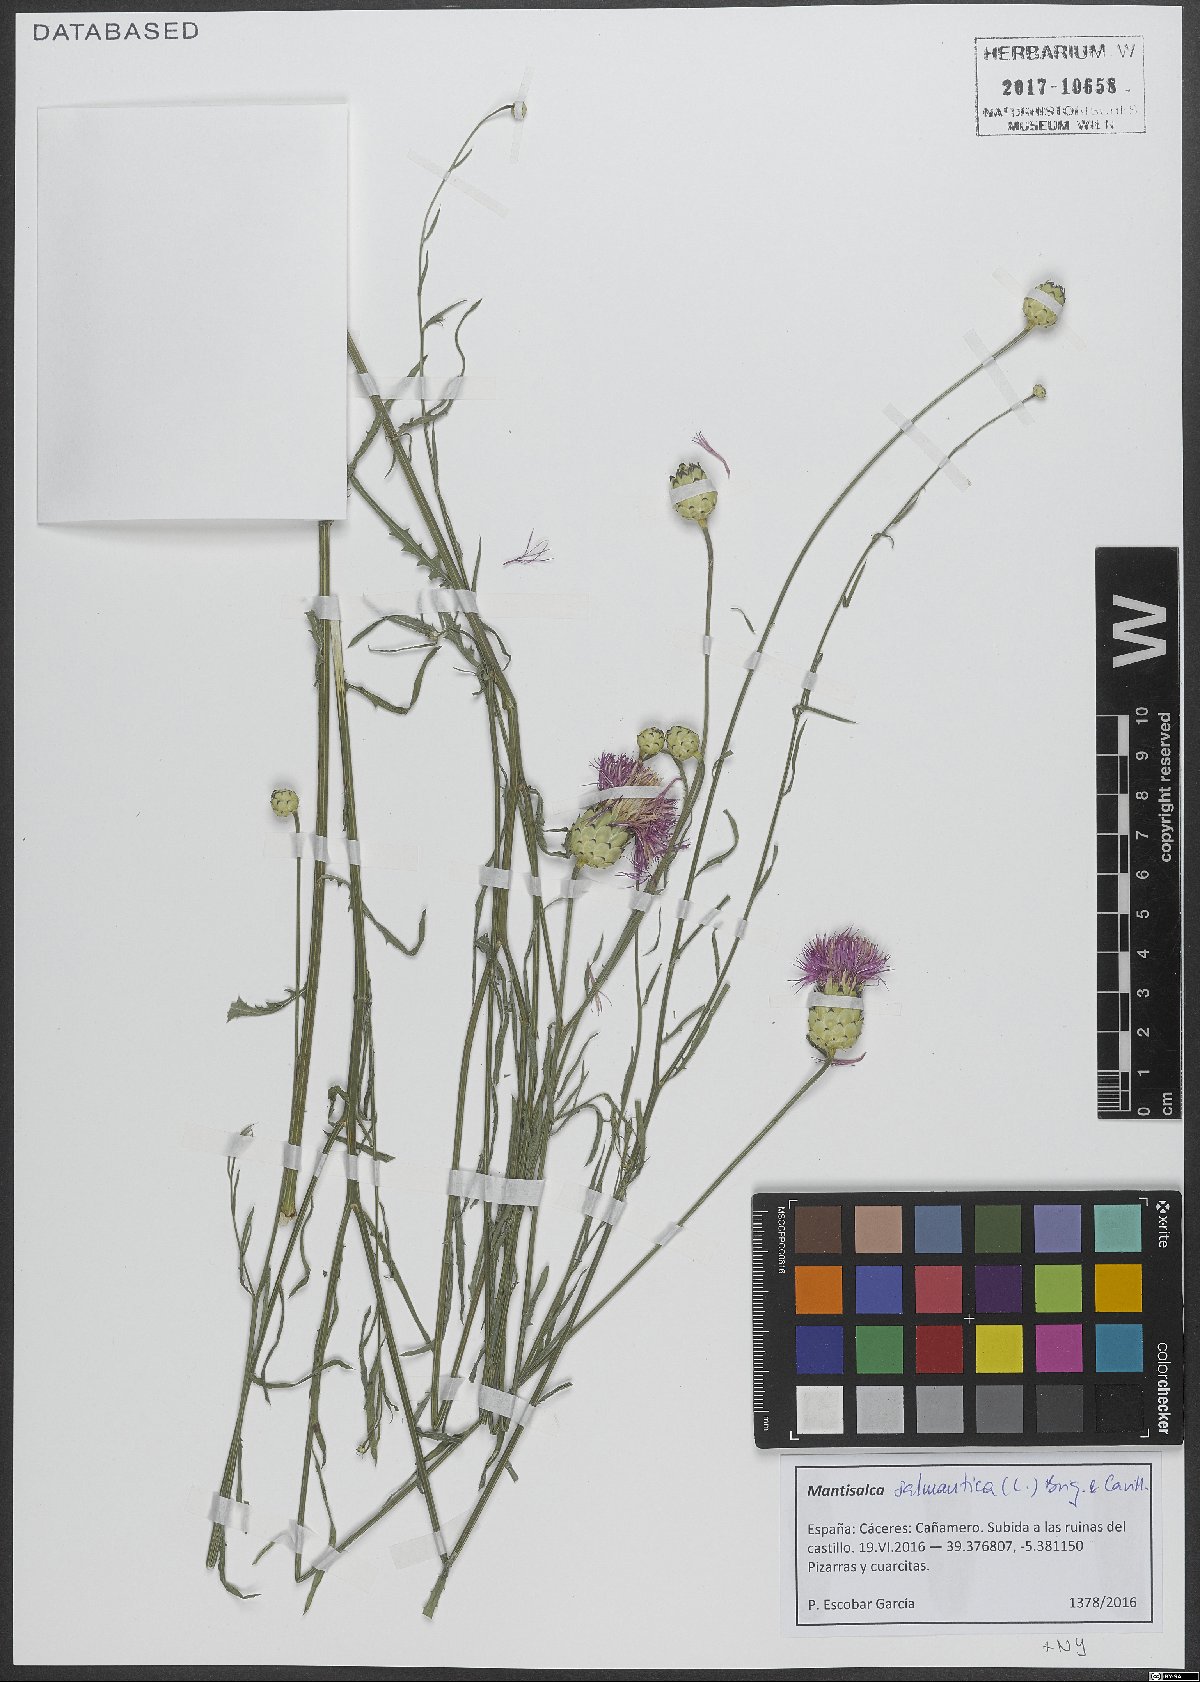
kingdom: Plantae
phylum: Tracheophyta
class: Magnoliopsida
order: Asterales
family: Asteraceae
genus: Mantisalca
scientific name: Mantisalca salmantica
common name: Dagger flower
